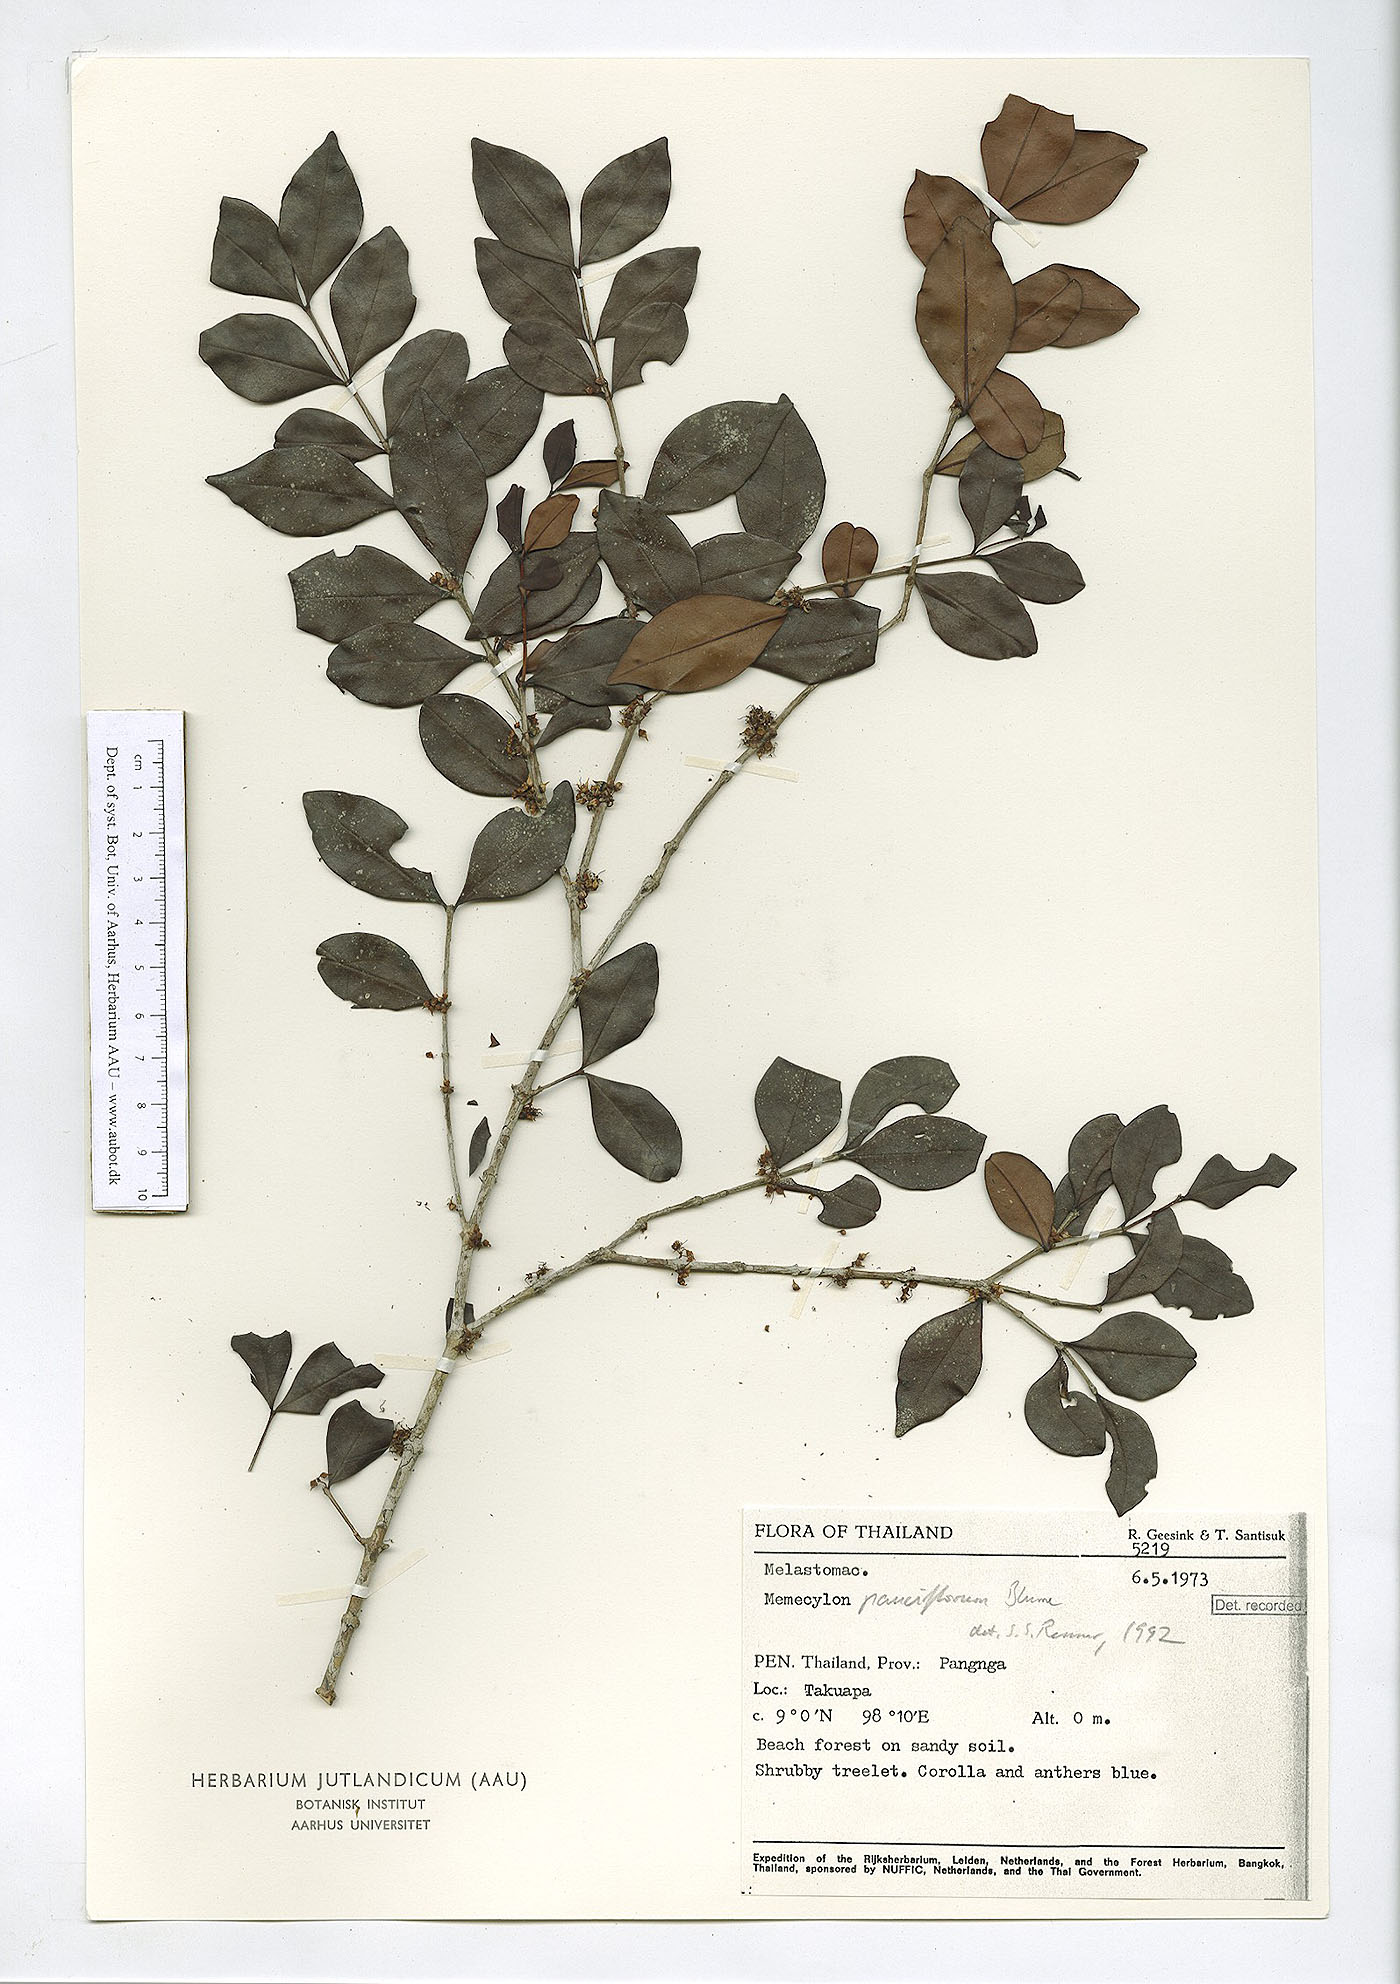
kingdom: Plantae
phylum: Tracheophyta
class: Magnoliopsida
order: Myrtales
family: Melastomataceae
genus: Memecylon
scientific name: Memecylon pauciflorum
